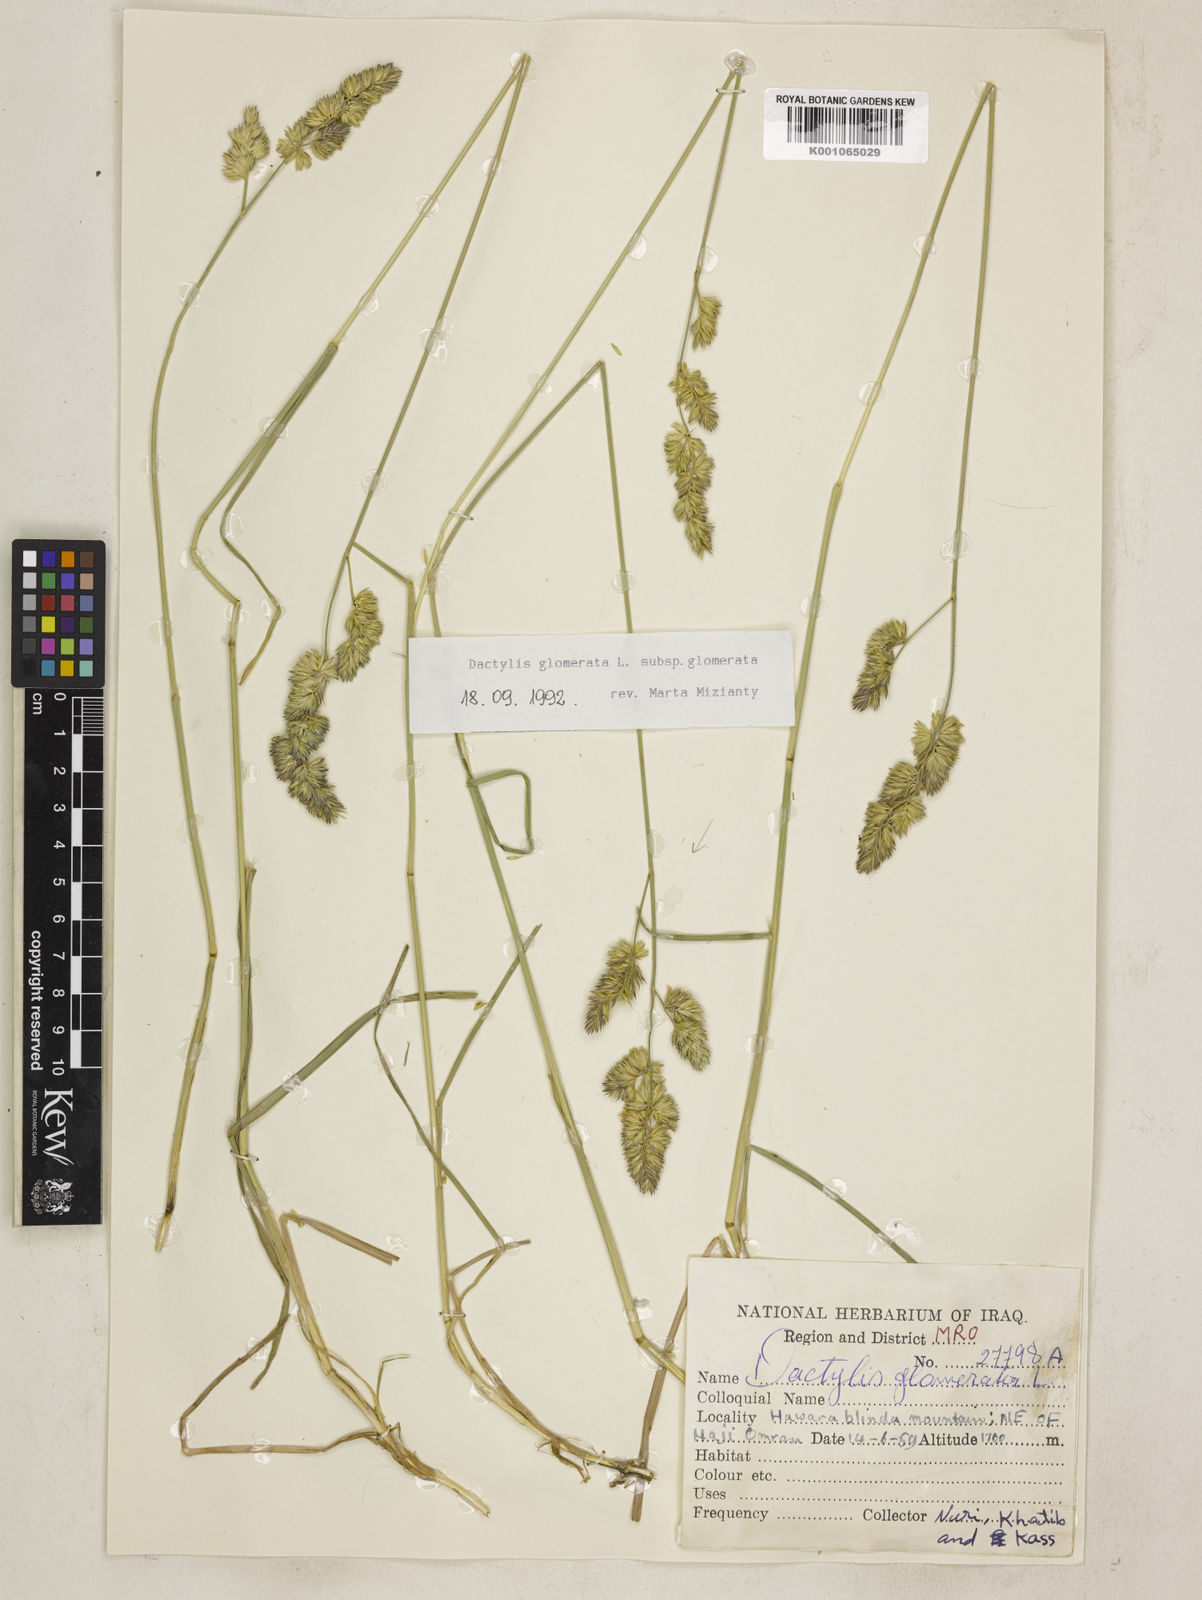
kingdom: Plantae
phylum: Tracheophyta
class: Liliopsida
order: Poales
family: Poaceae
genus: Dactylis
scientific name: Dactylis glomerata
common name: Orchardgrass
